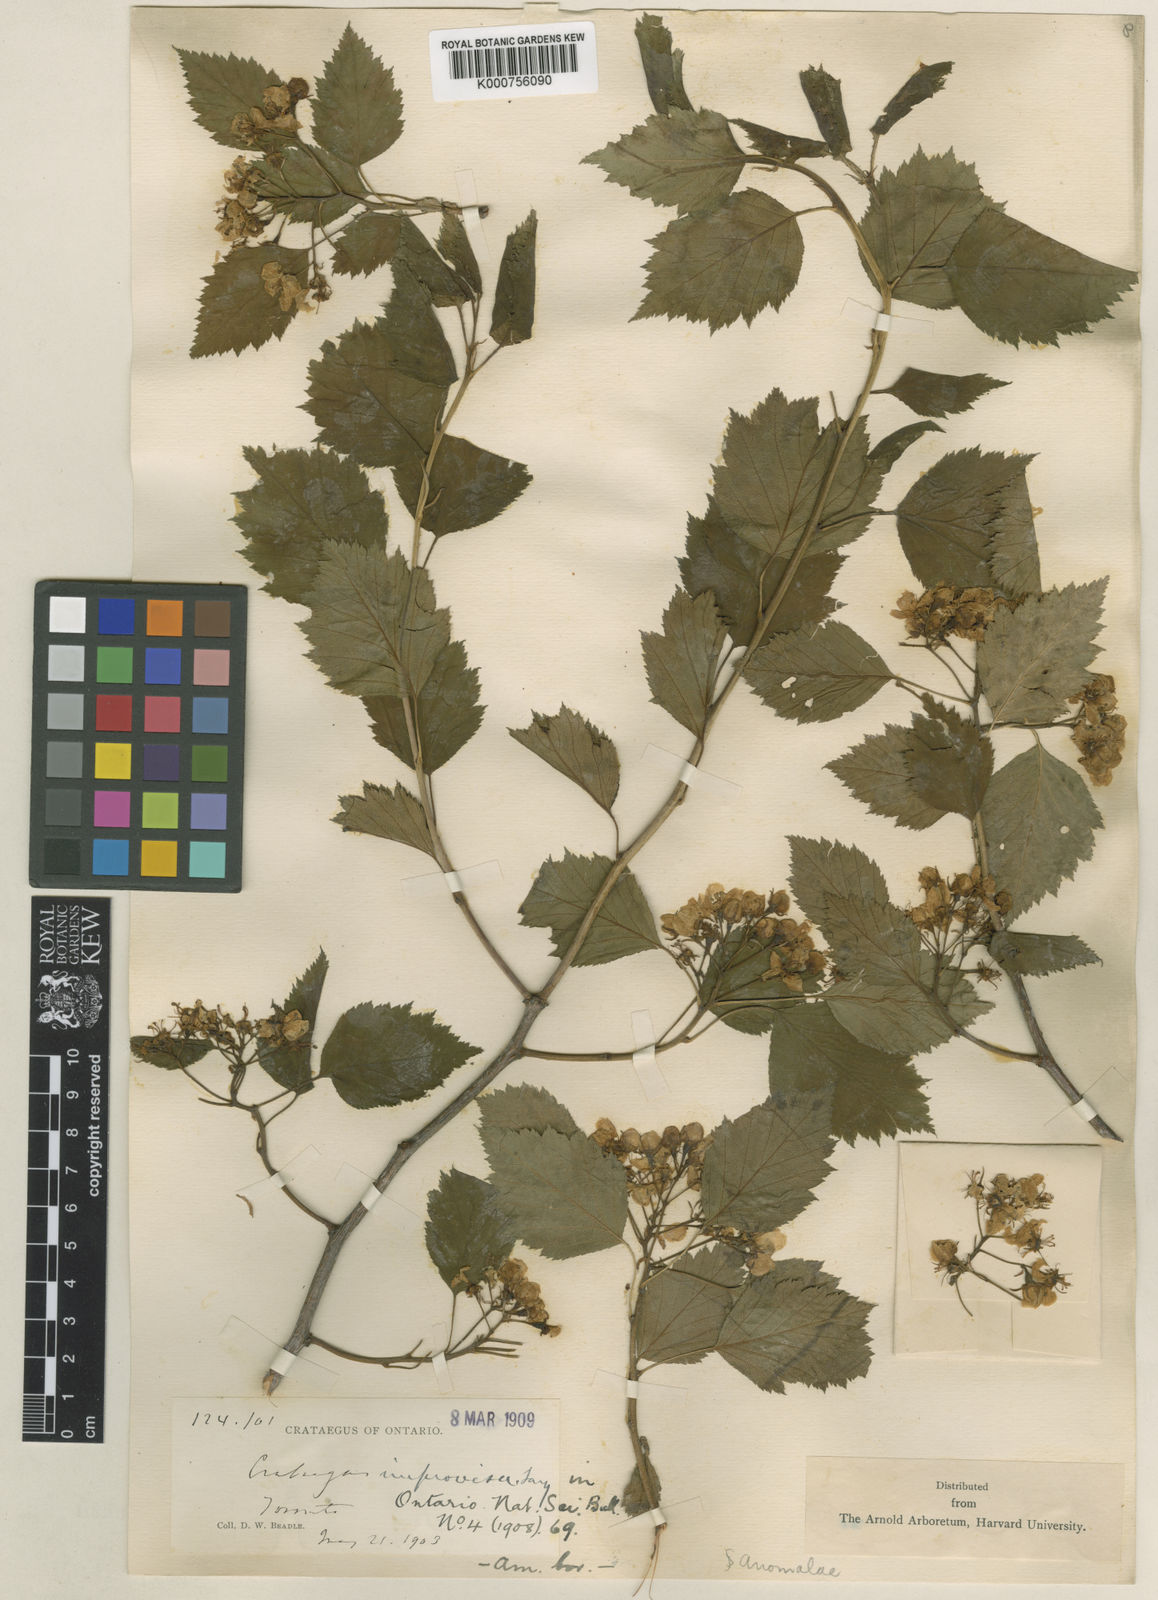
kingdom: Plantae
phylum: Tracheophyta
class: Magnoliopsida
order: Rosales
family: Rosaceae
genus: Crataegus
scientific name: Crataegus scabrida
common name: Rough hawthorn
